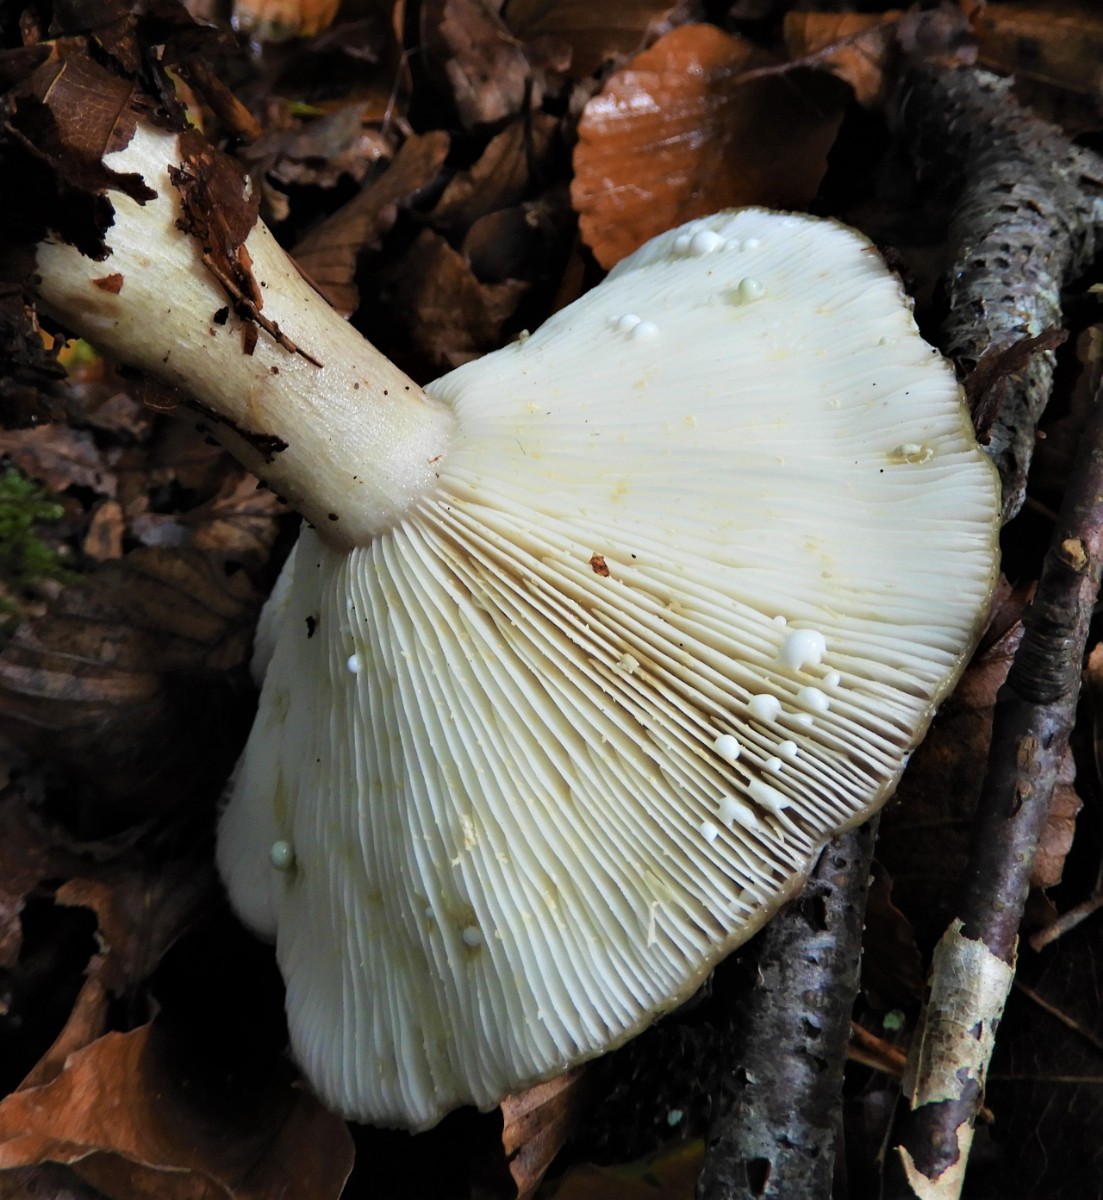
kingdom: Fungi
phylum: Basidiomycota
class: Agaricomycetes
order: Russulales
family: Russulaceae
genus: Lactarius
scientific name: Lactarius blennius
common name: dråbeplettet mælkehat
